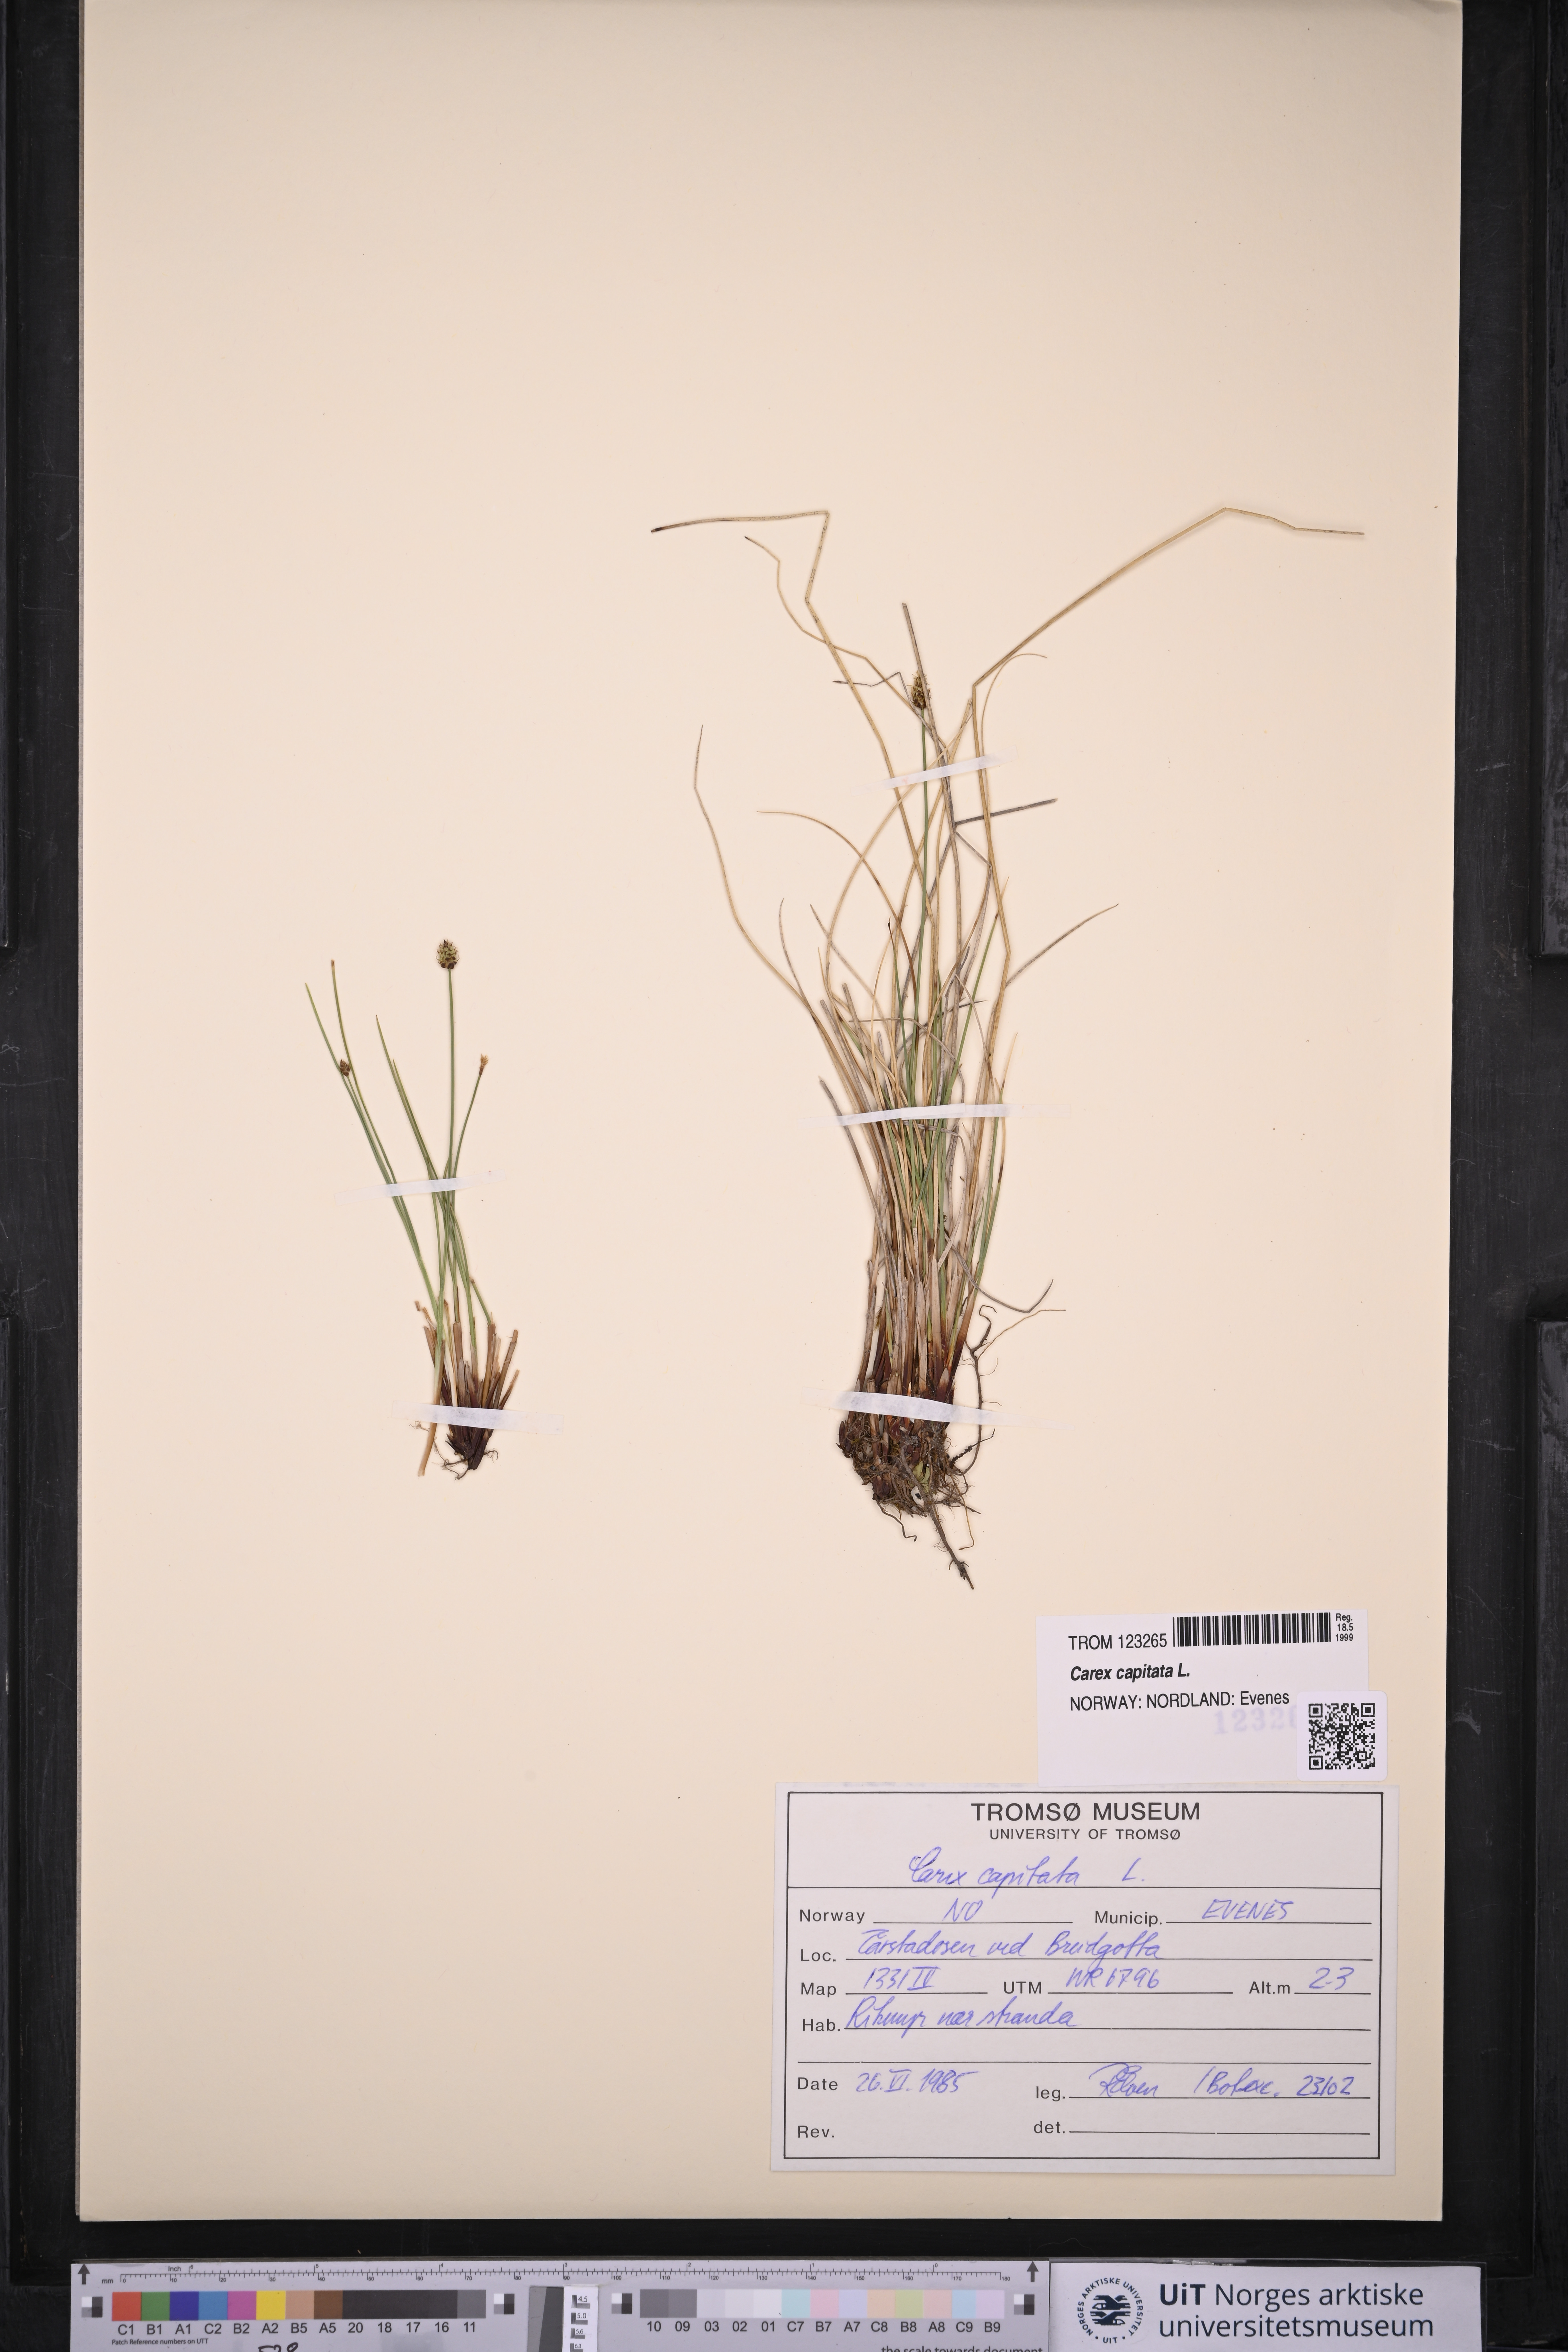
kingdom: Plantae
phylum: Tracheophyta
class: Liliopsida
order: Poales
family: Cyperaceae
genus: Carex
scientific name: Carex capitata
